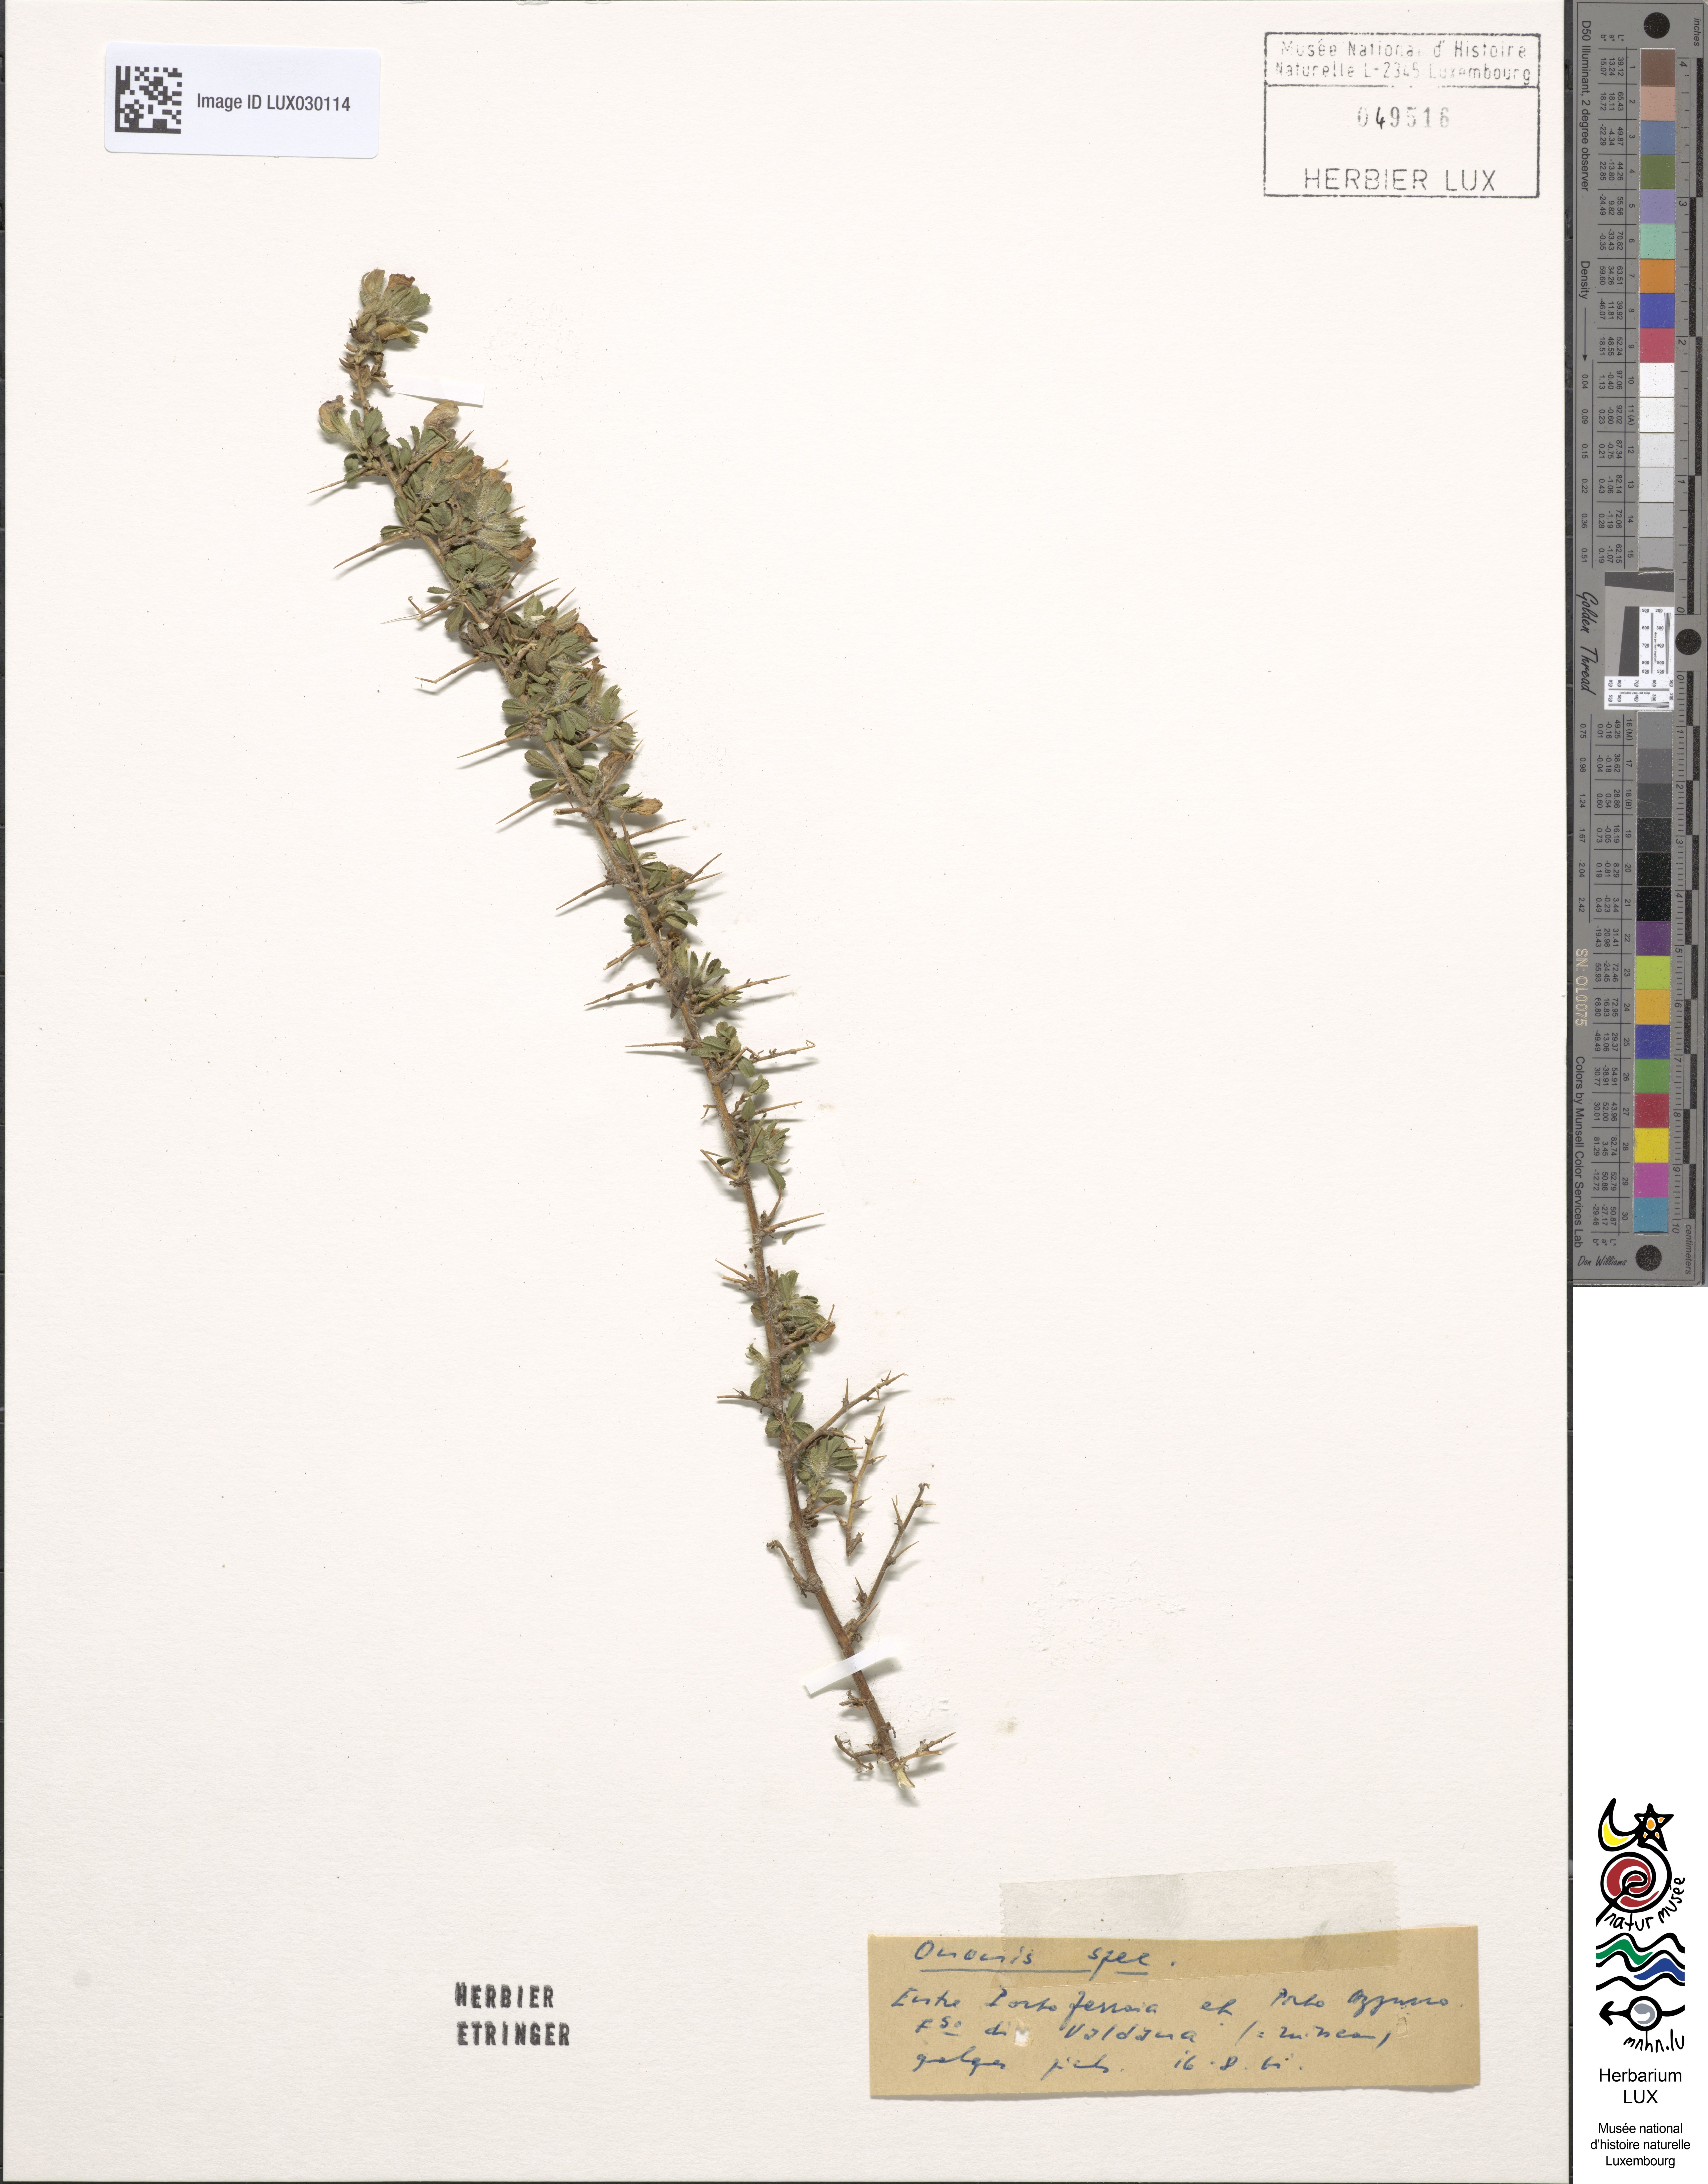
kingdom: Plantae
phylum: Tracheophyta
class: Magnoliopsida
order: Fabales
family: Fabaceae
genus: Ononis
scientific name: Ononis
